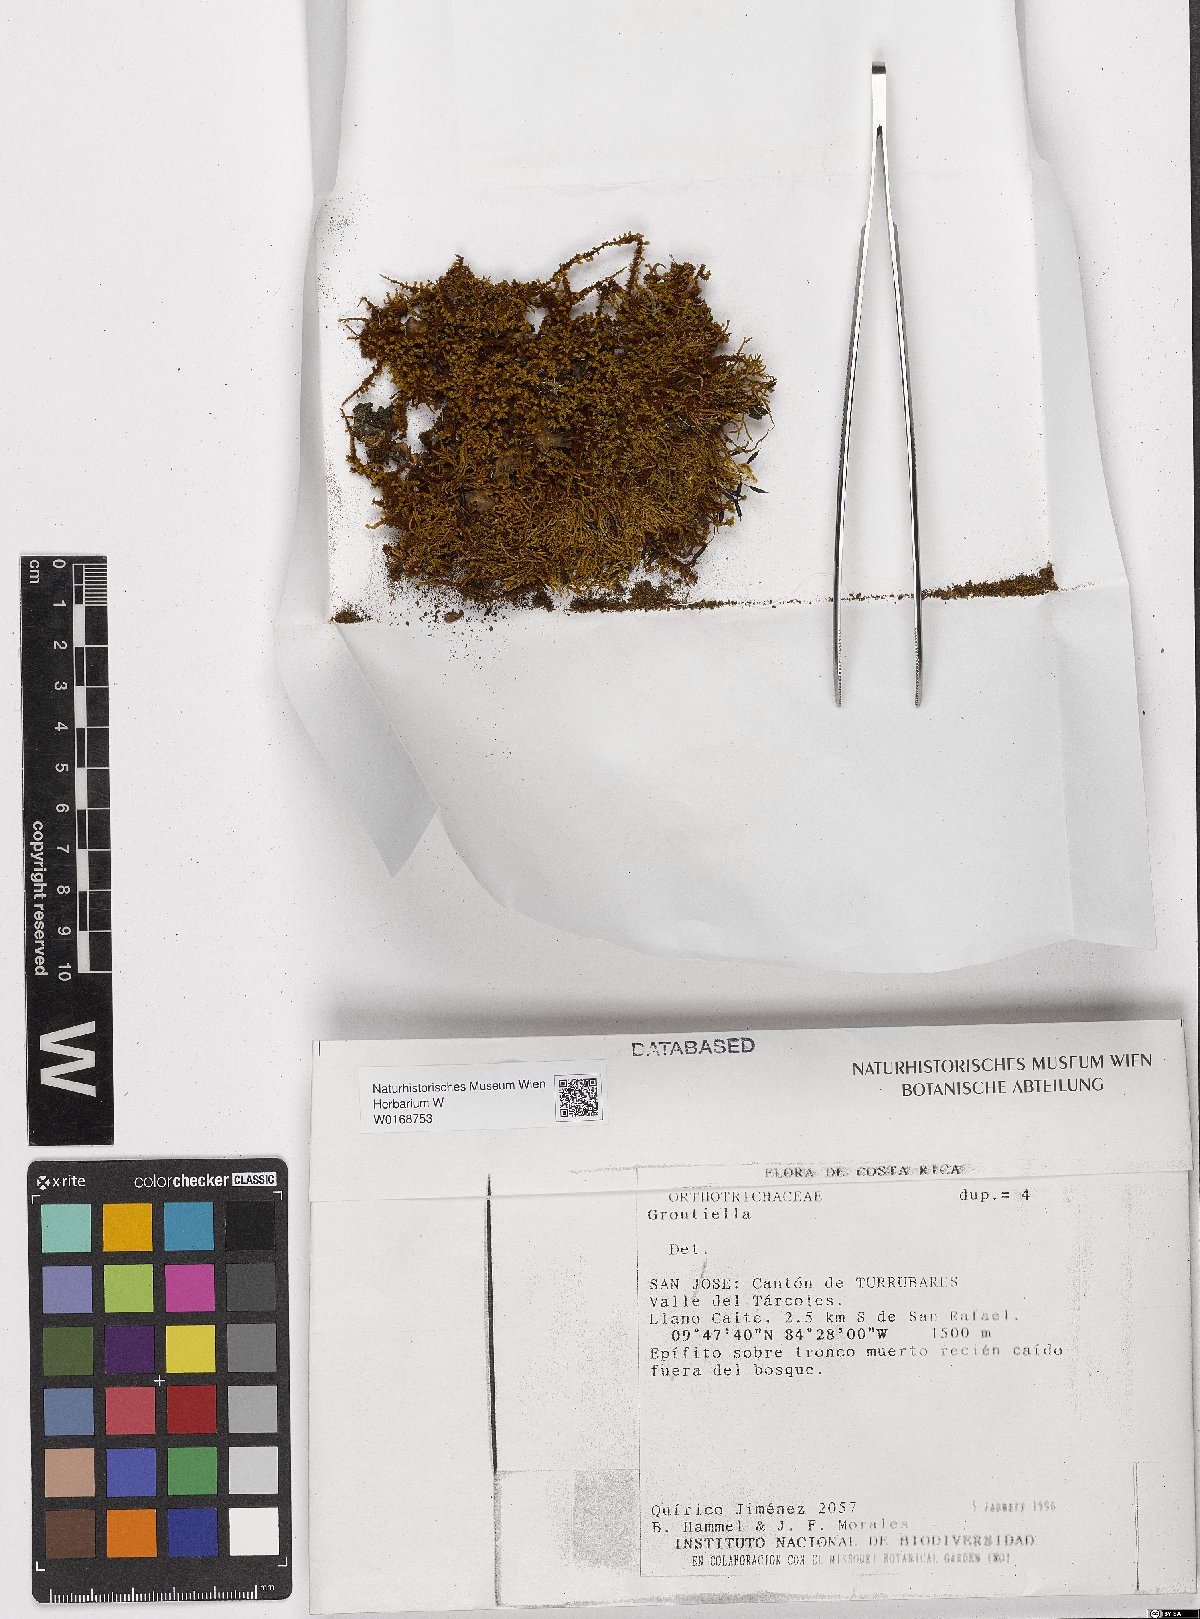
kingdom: Plantae
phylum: Bryophyta
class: Bryopsida
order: Orthotrichales
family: Orthotrichaceae
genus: Groutiella
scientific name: Groutiella
